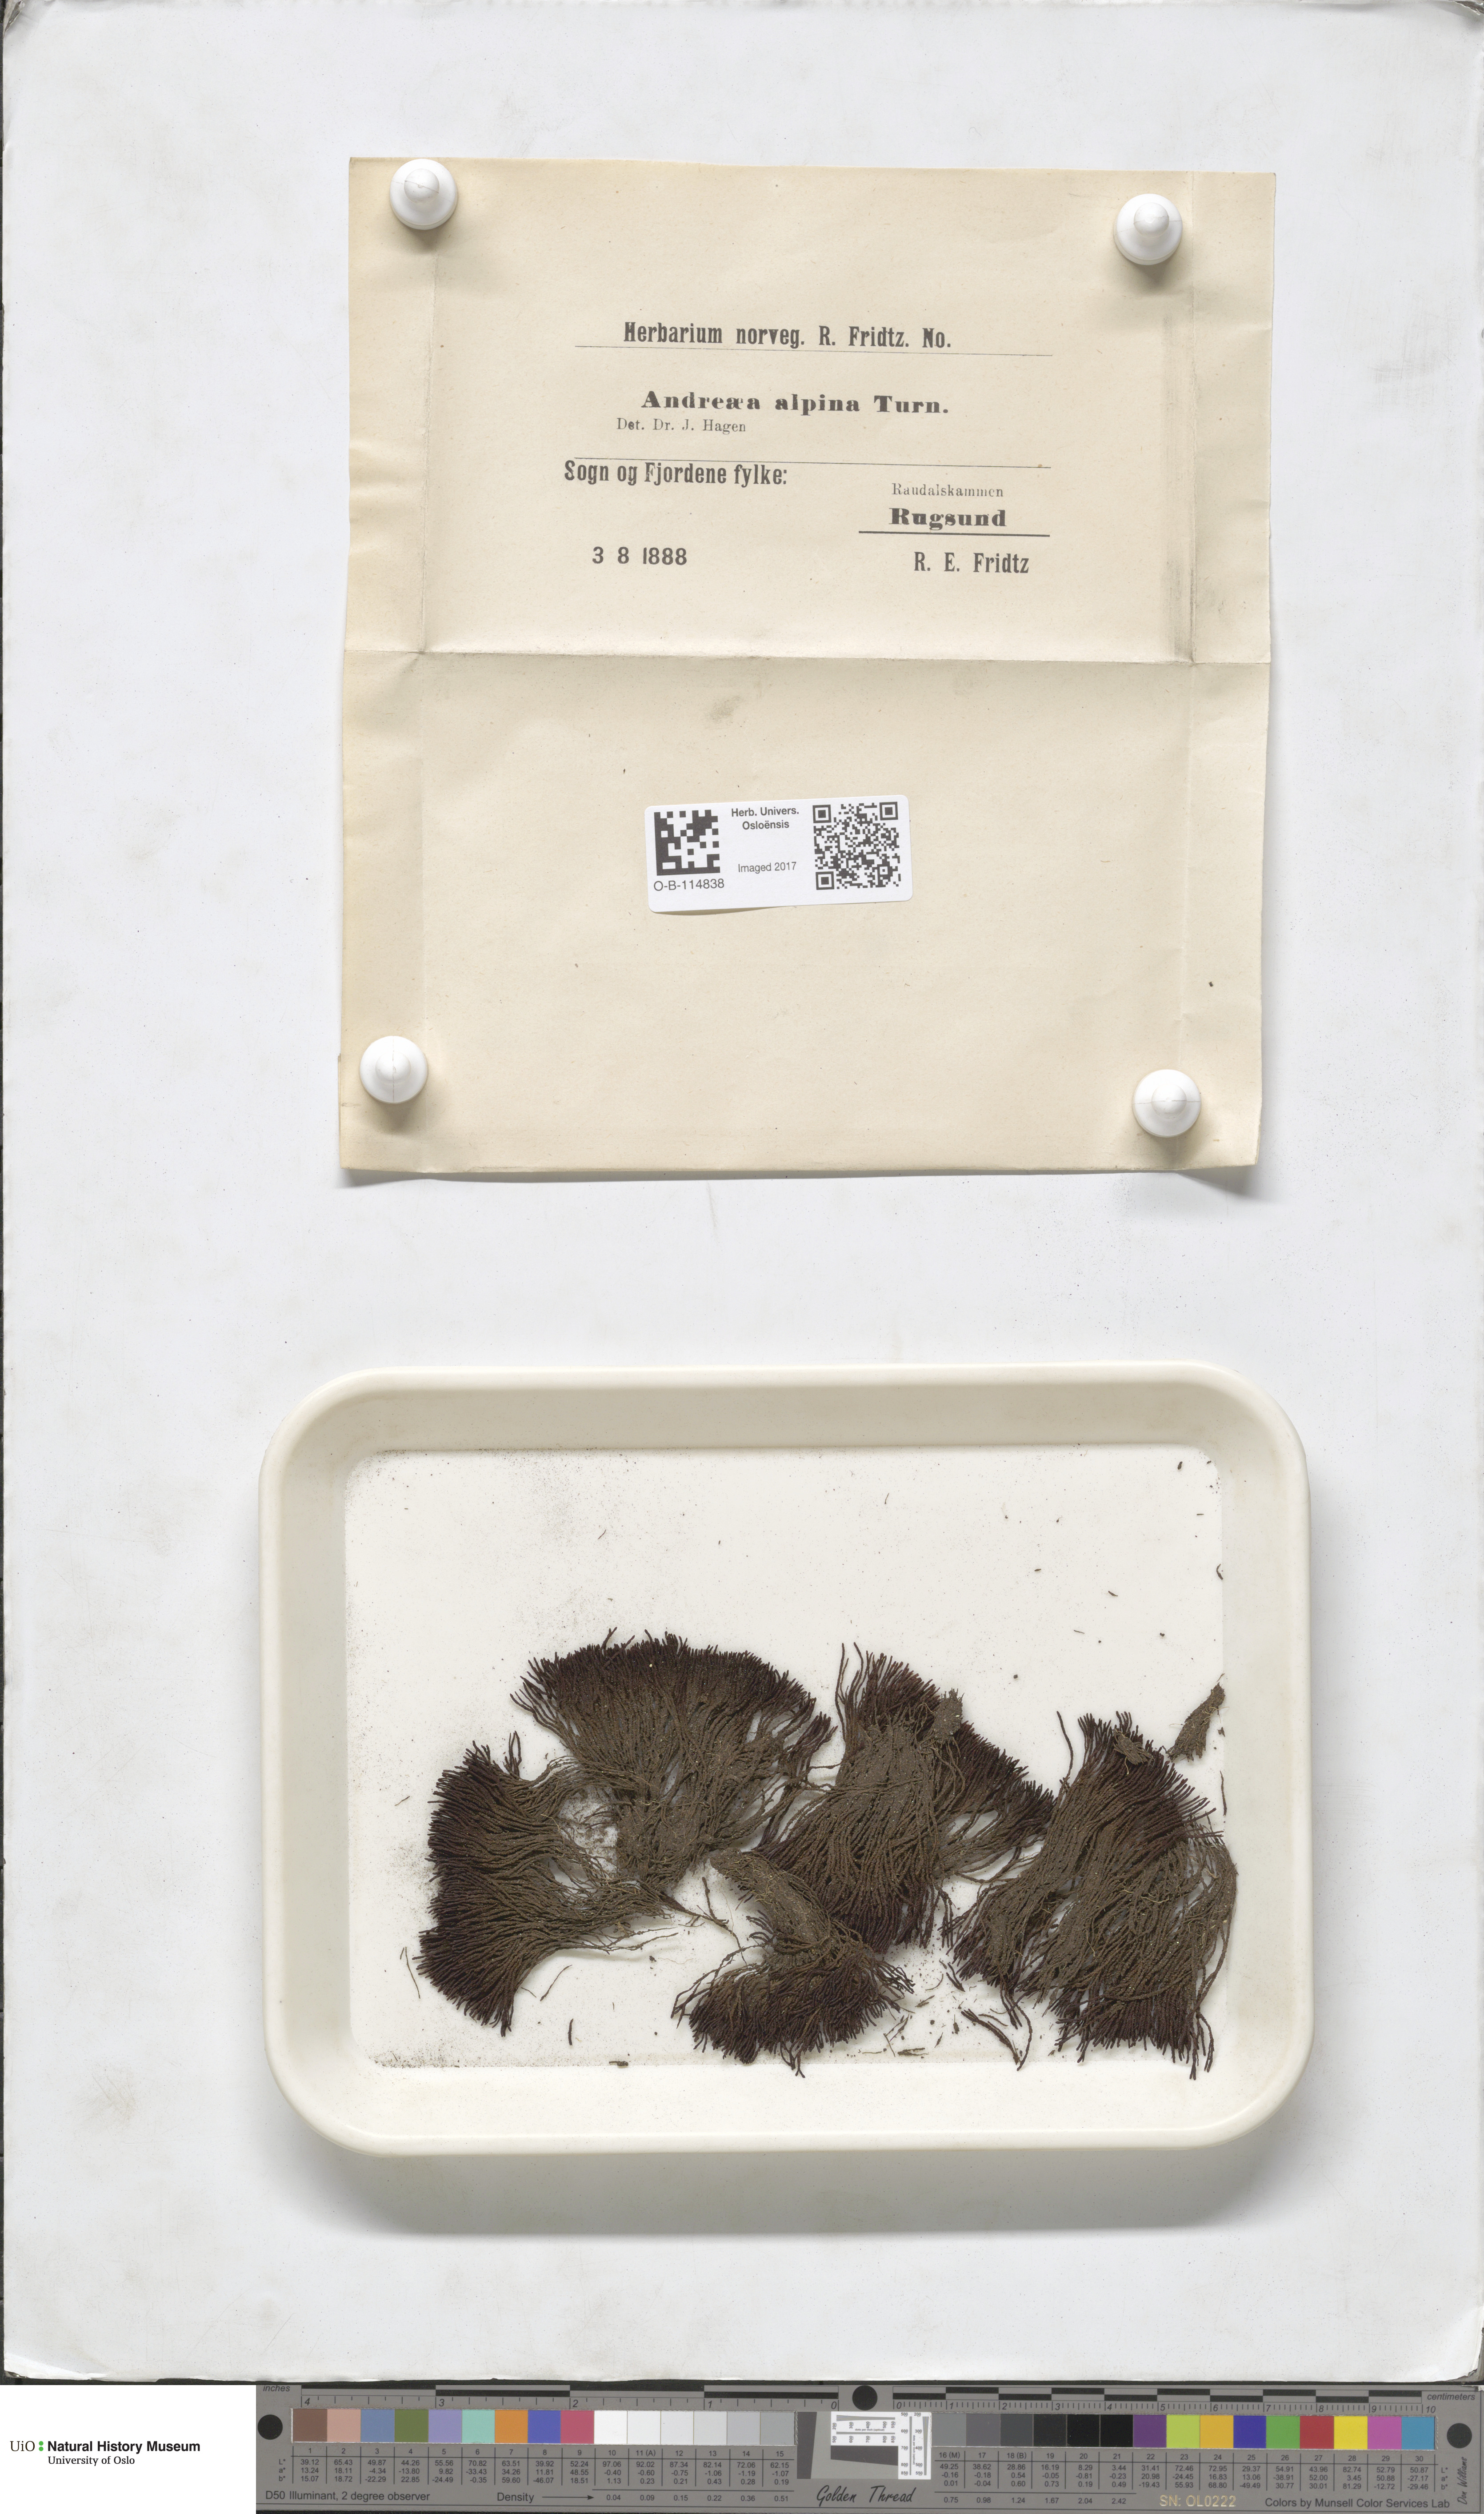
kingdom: Plantae
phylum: Bryophyta
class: Andreaeopsida
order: Andreaeales
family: Andreaeaceae
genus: Andreaea
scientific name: Andreaea hookeri
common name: Alpine rock-moss
